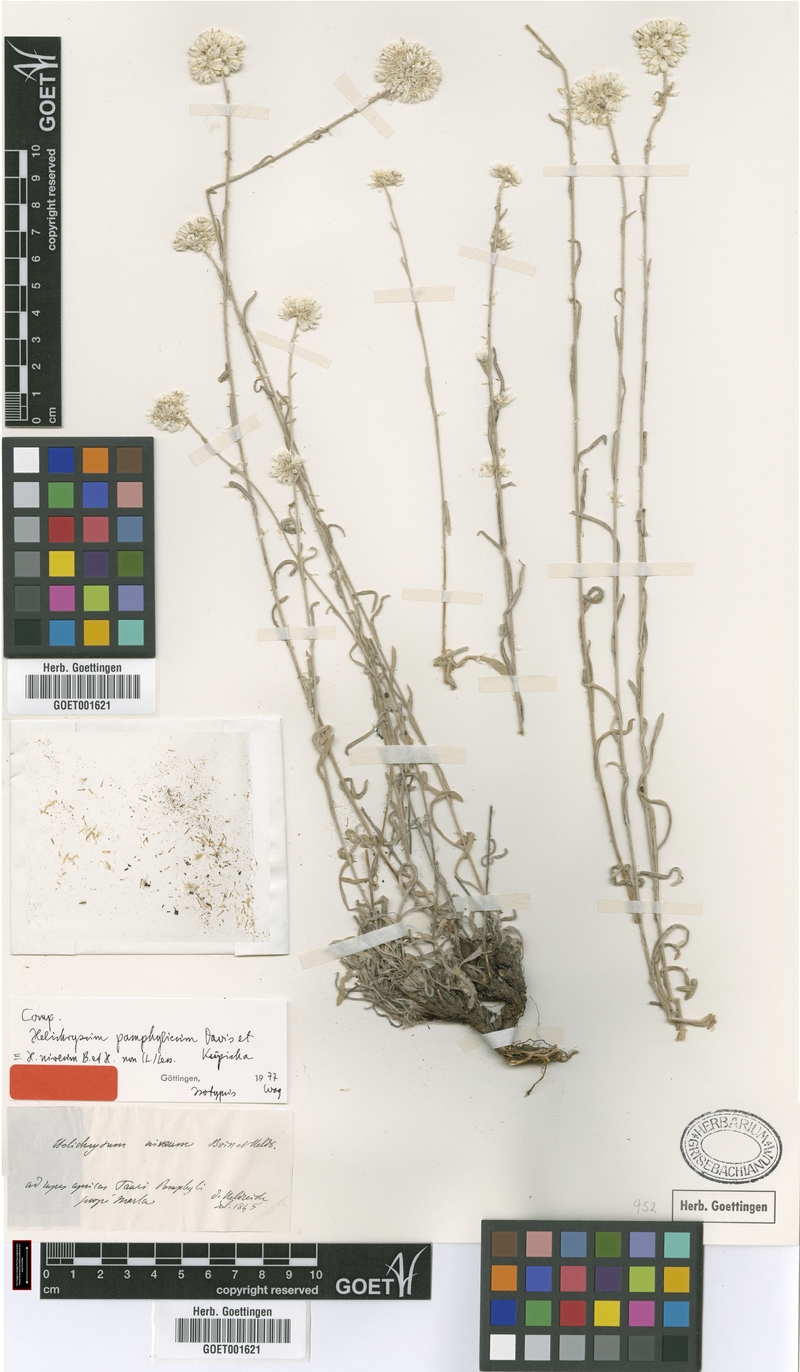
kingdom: Plantae
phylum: Tracheophyta
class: Magnoliopsida
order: Asterales
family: Asteraceae
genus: Helichrysum
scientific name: Helichrysum pamphylicum
